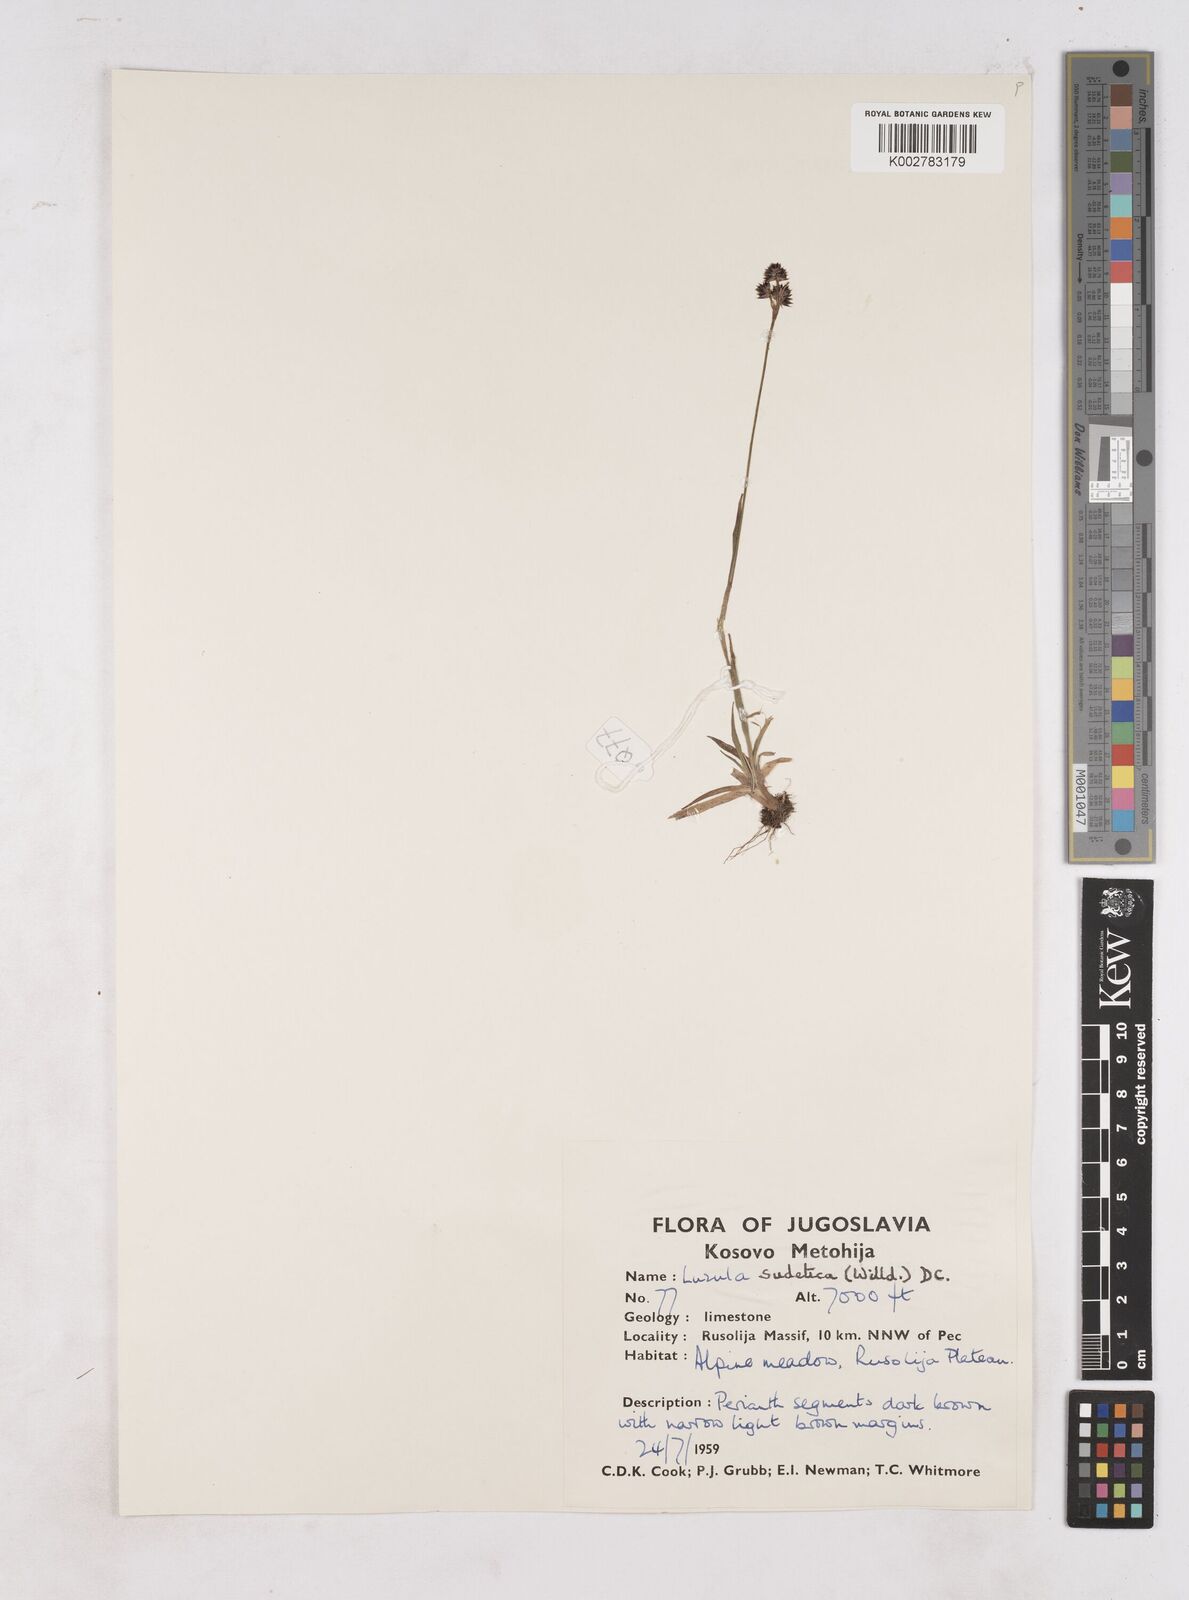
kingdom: Plantae
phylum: Tracheophyta
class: Liliopsida
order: Poales
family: Juncaceae
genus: Luzula
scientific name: Luzula sudetica
